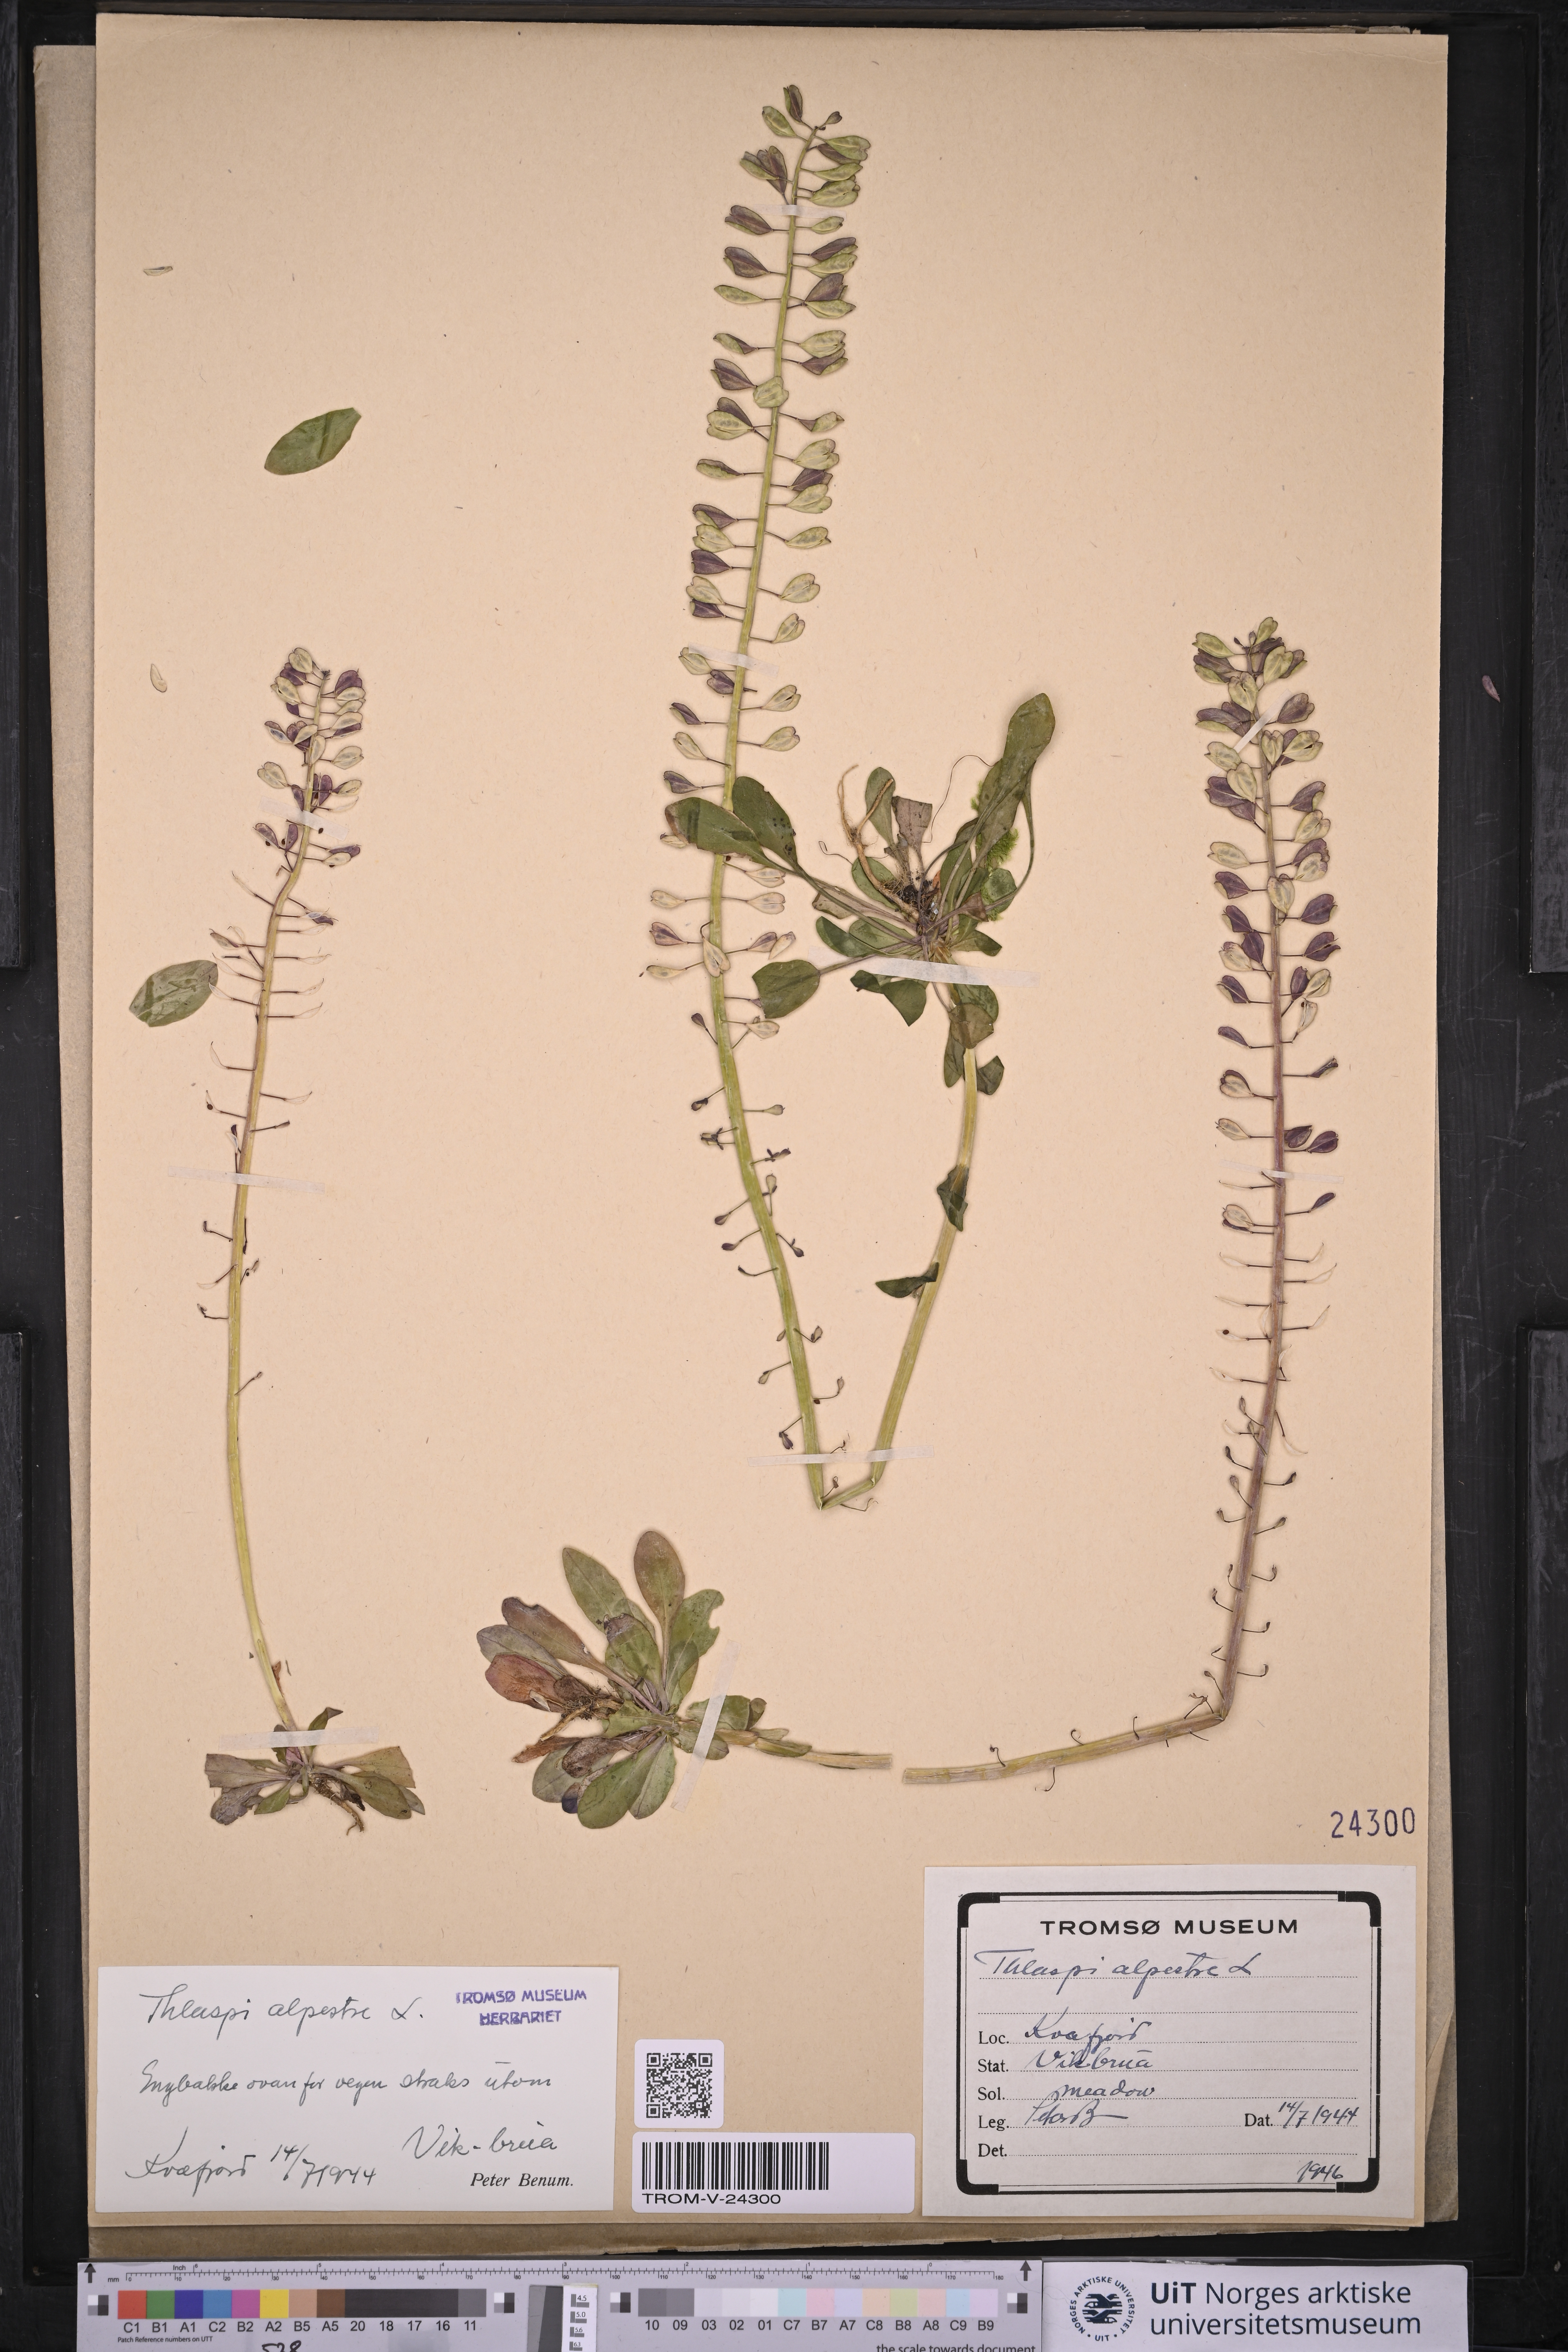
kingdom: Plantae
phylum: Tracheophyta
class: Magnoliopsida
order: Brassicales
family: Brassicaceae
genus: Noccaea
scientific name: Noccaea caerulescens
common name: Alpine pennycress
